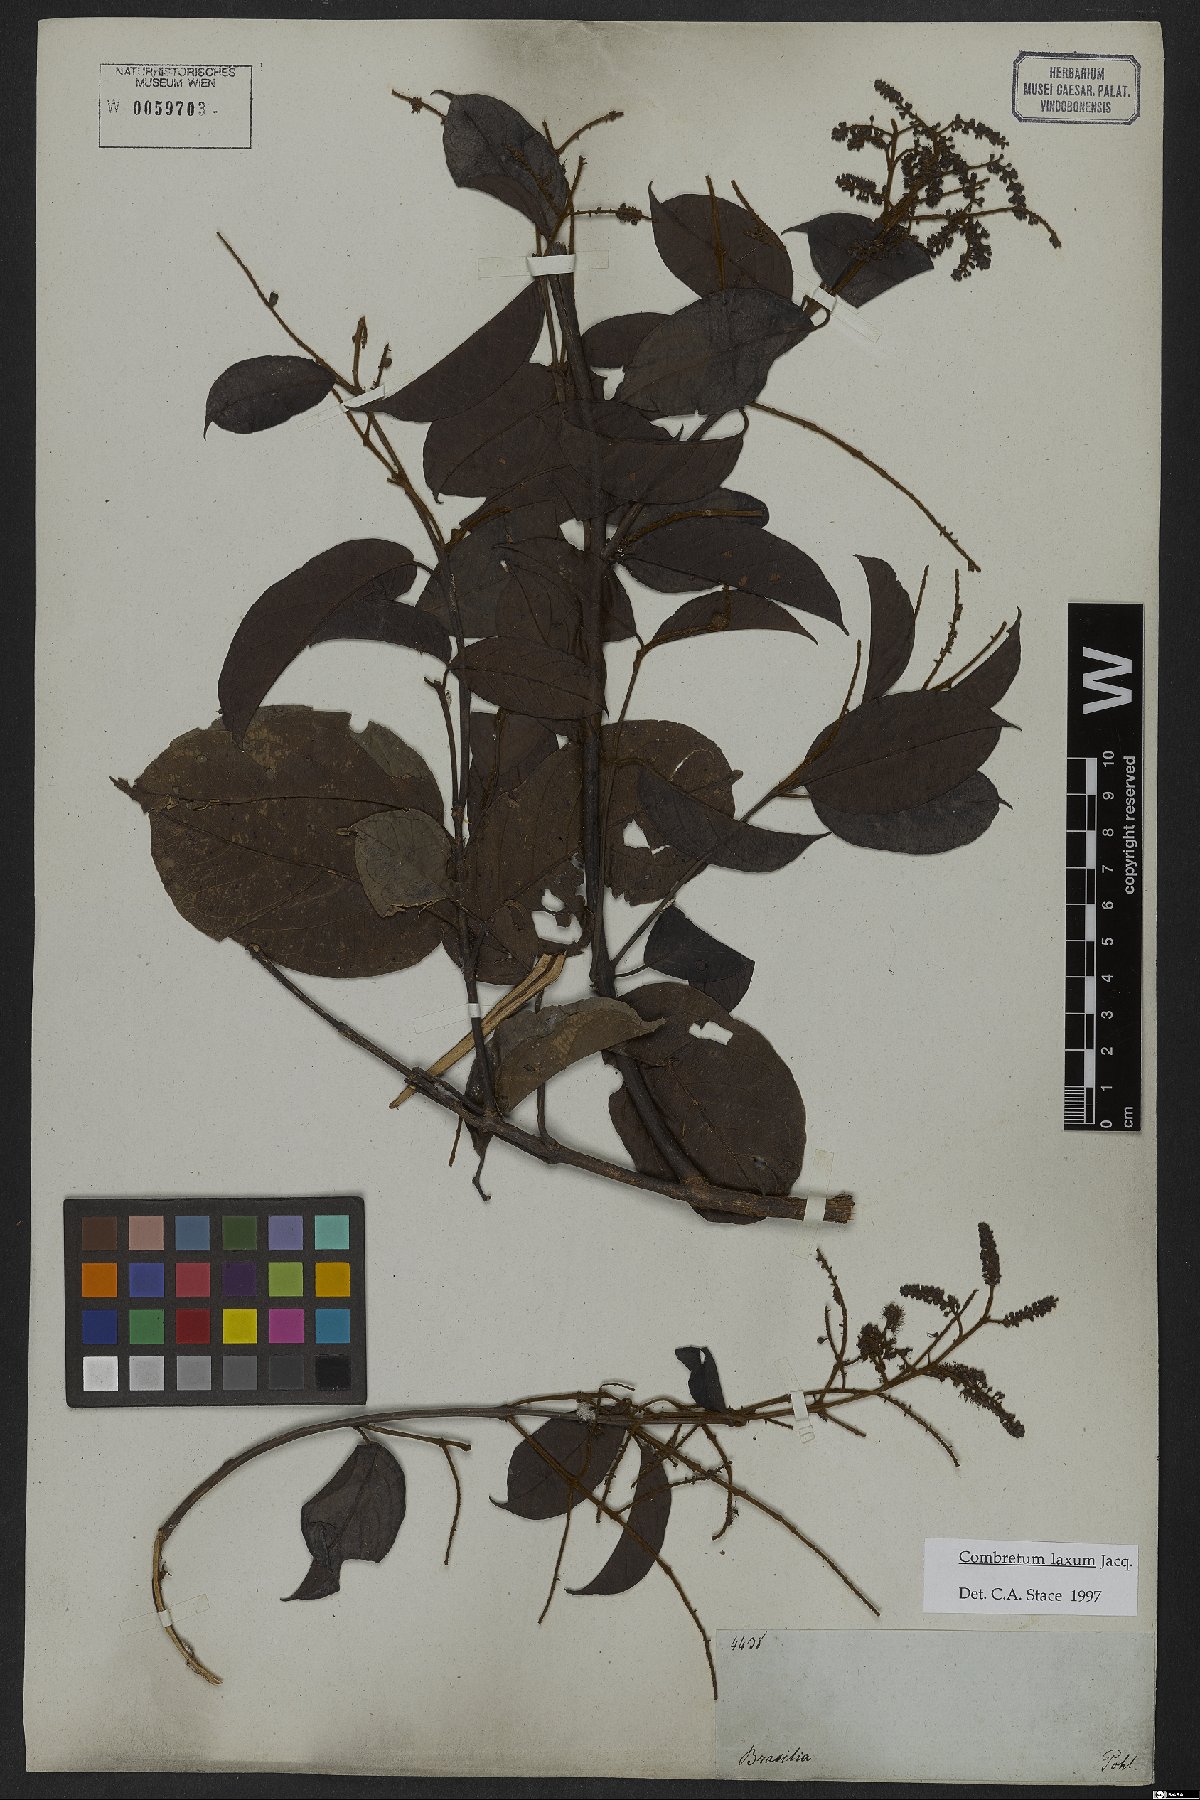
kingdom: Plantae
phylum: Tracheophyta
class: Magnoliopsida
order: Myrtales
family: Combretaceae
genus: Combretum
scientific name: Combretum laxum
